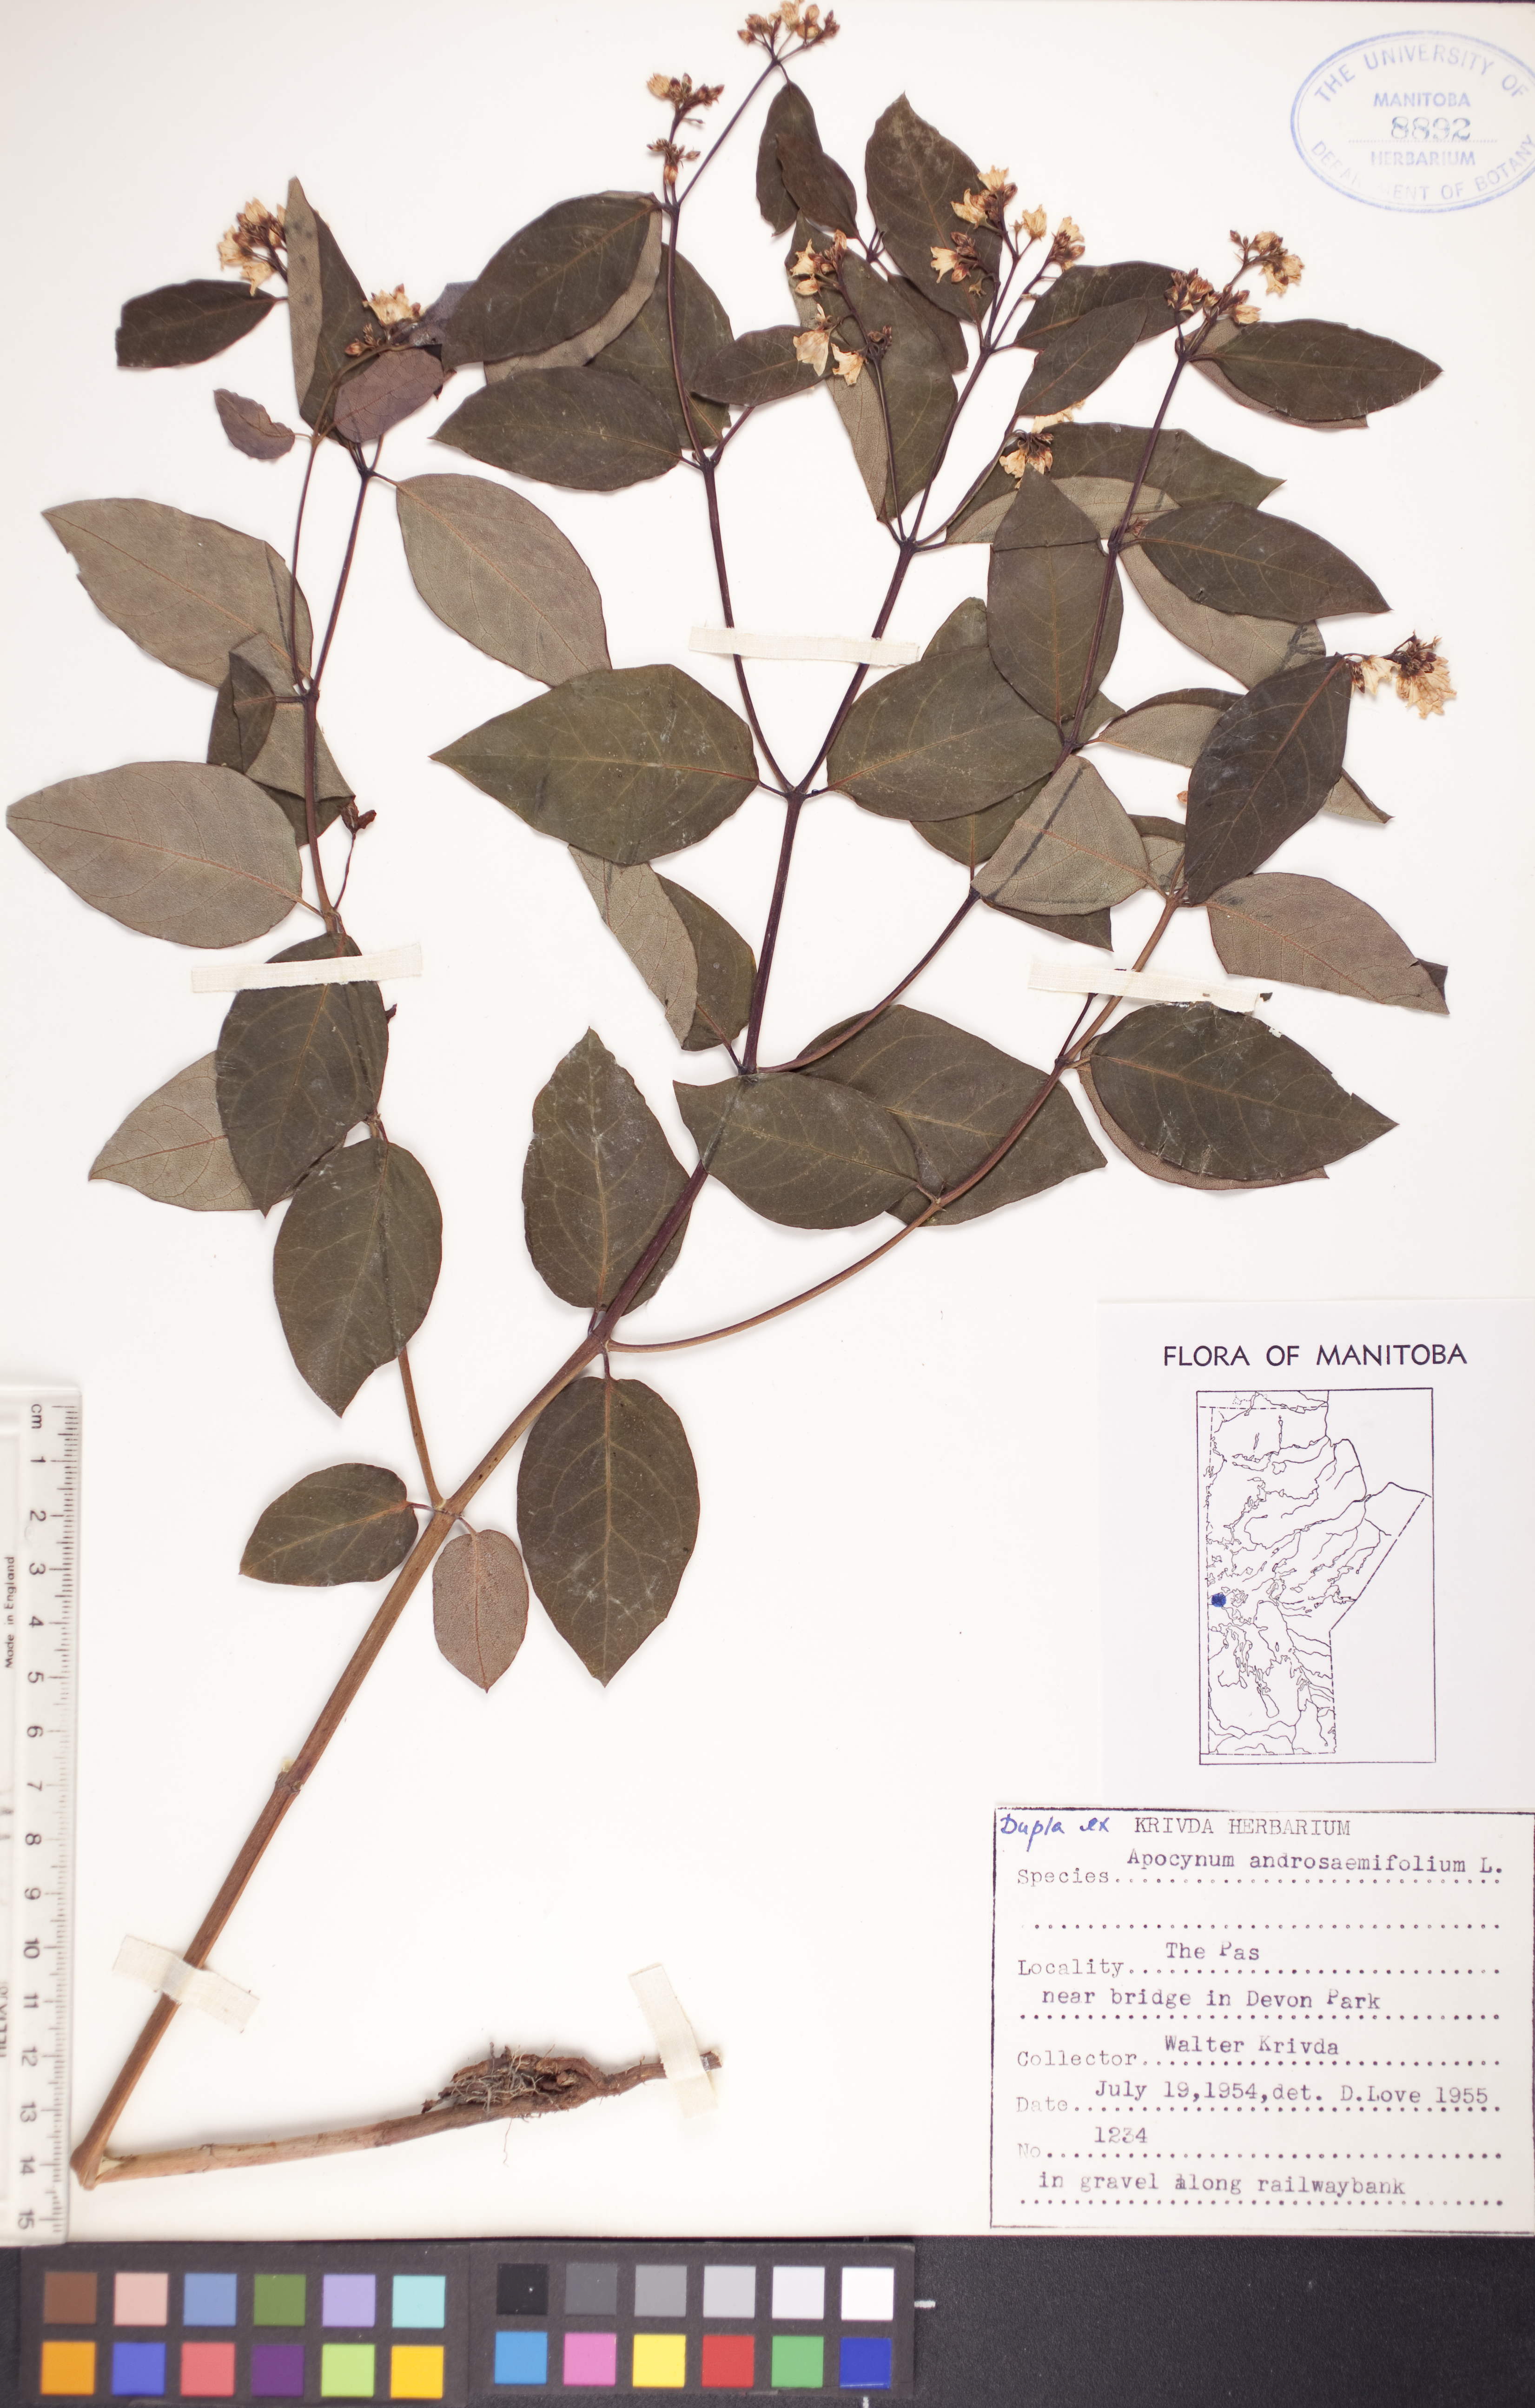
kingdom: Plantae
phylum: Tracheophyta
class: Magnoliopsida
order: Gentianales
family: Apocynaceae
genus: Apocynum
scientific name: Apocynum androsaemifolium
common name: Spreading dogbane
